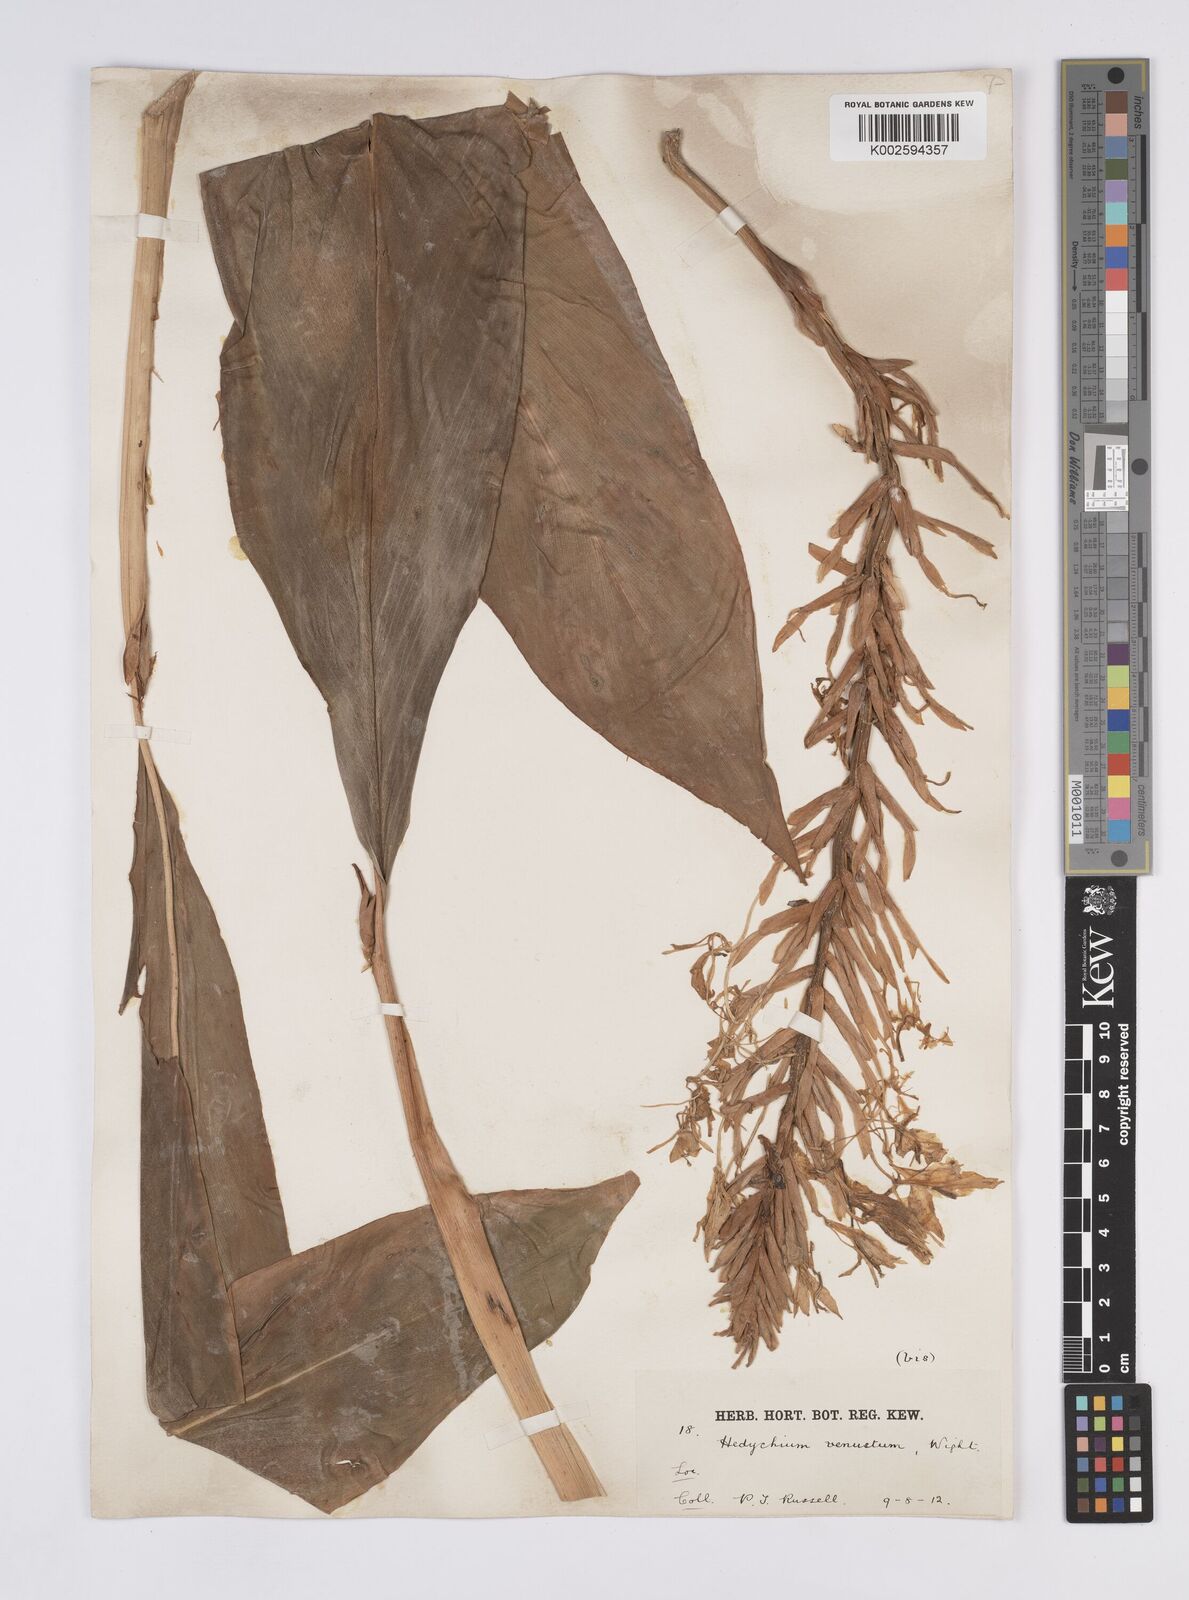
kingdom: Plantae
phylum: Tracheophyta
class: Liliopsida
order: Zingiberales
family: Zingiberaceae
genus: Hedychium
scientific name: Hedychium venustum
